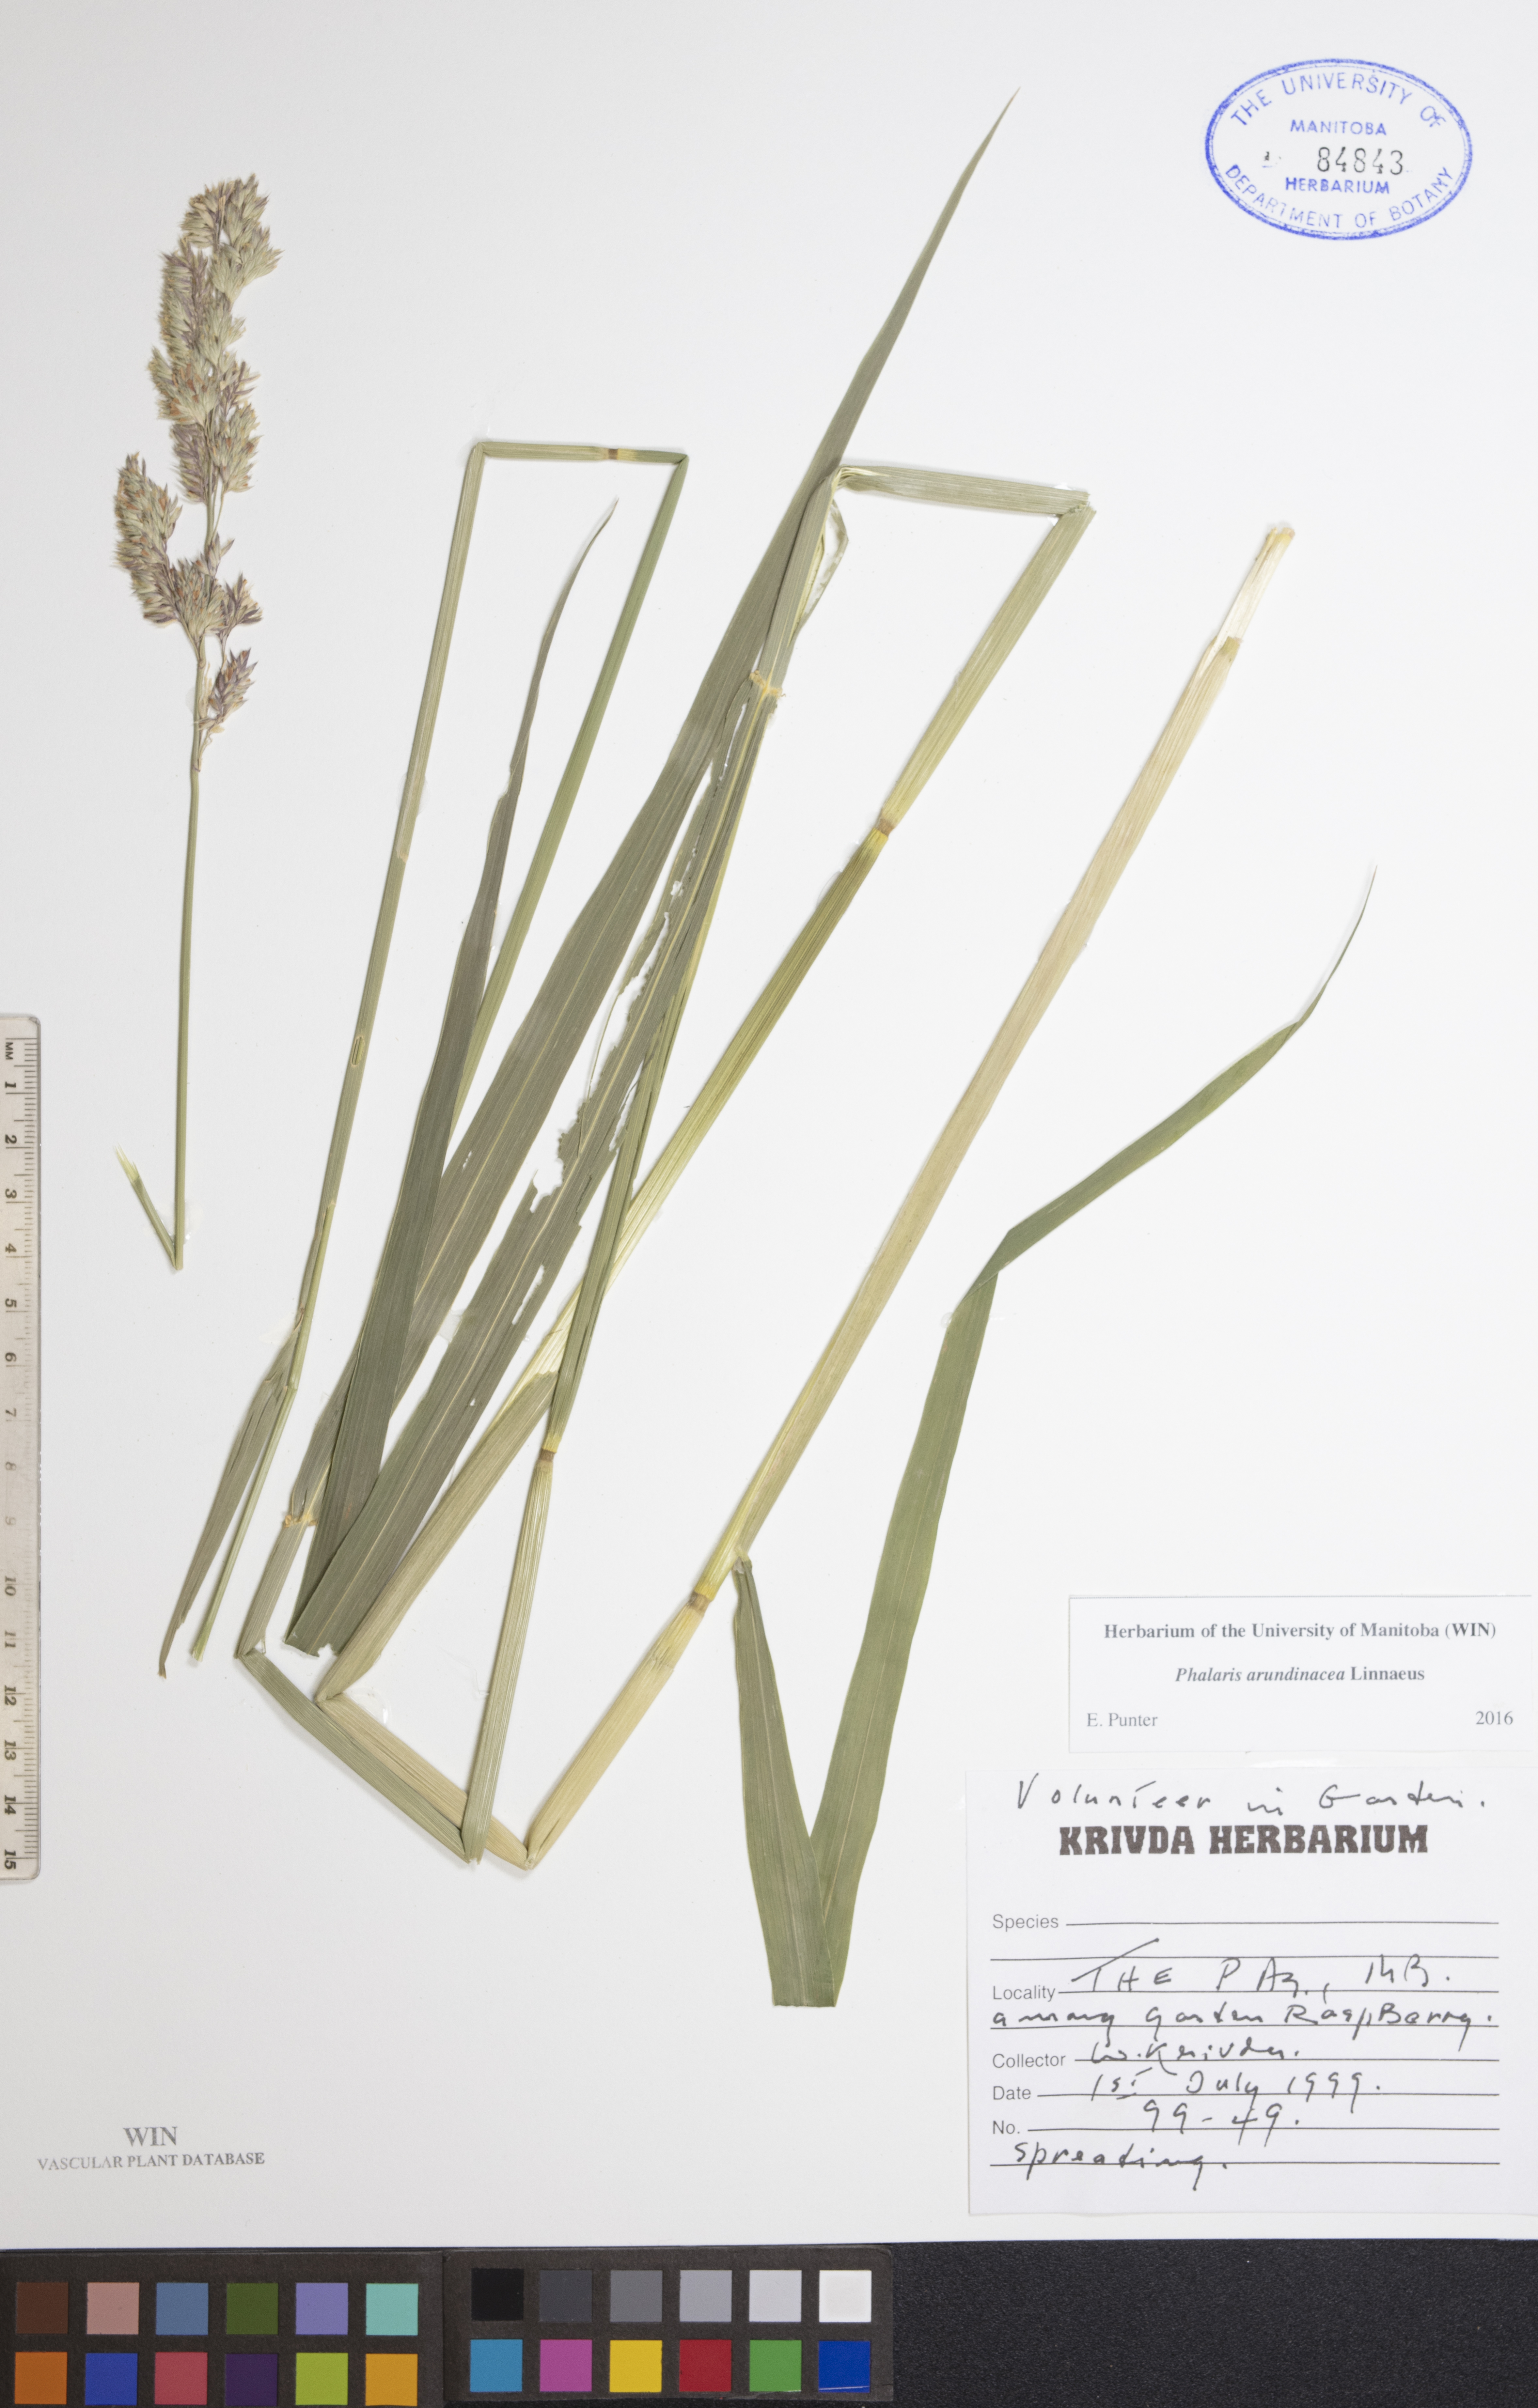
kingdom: Plantae
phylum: Tracheophyta
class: Liliopsida
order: Poales
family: Poaceae
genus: Phalaris
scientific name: Phalaris arundinacea
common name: Reed canary-grass
